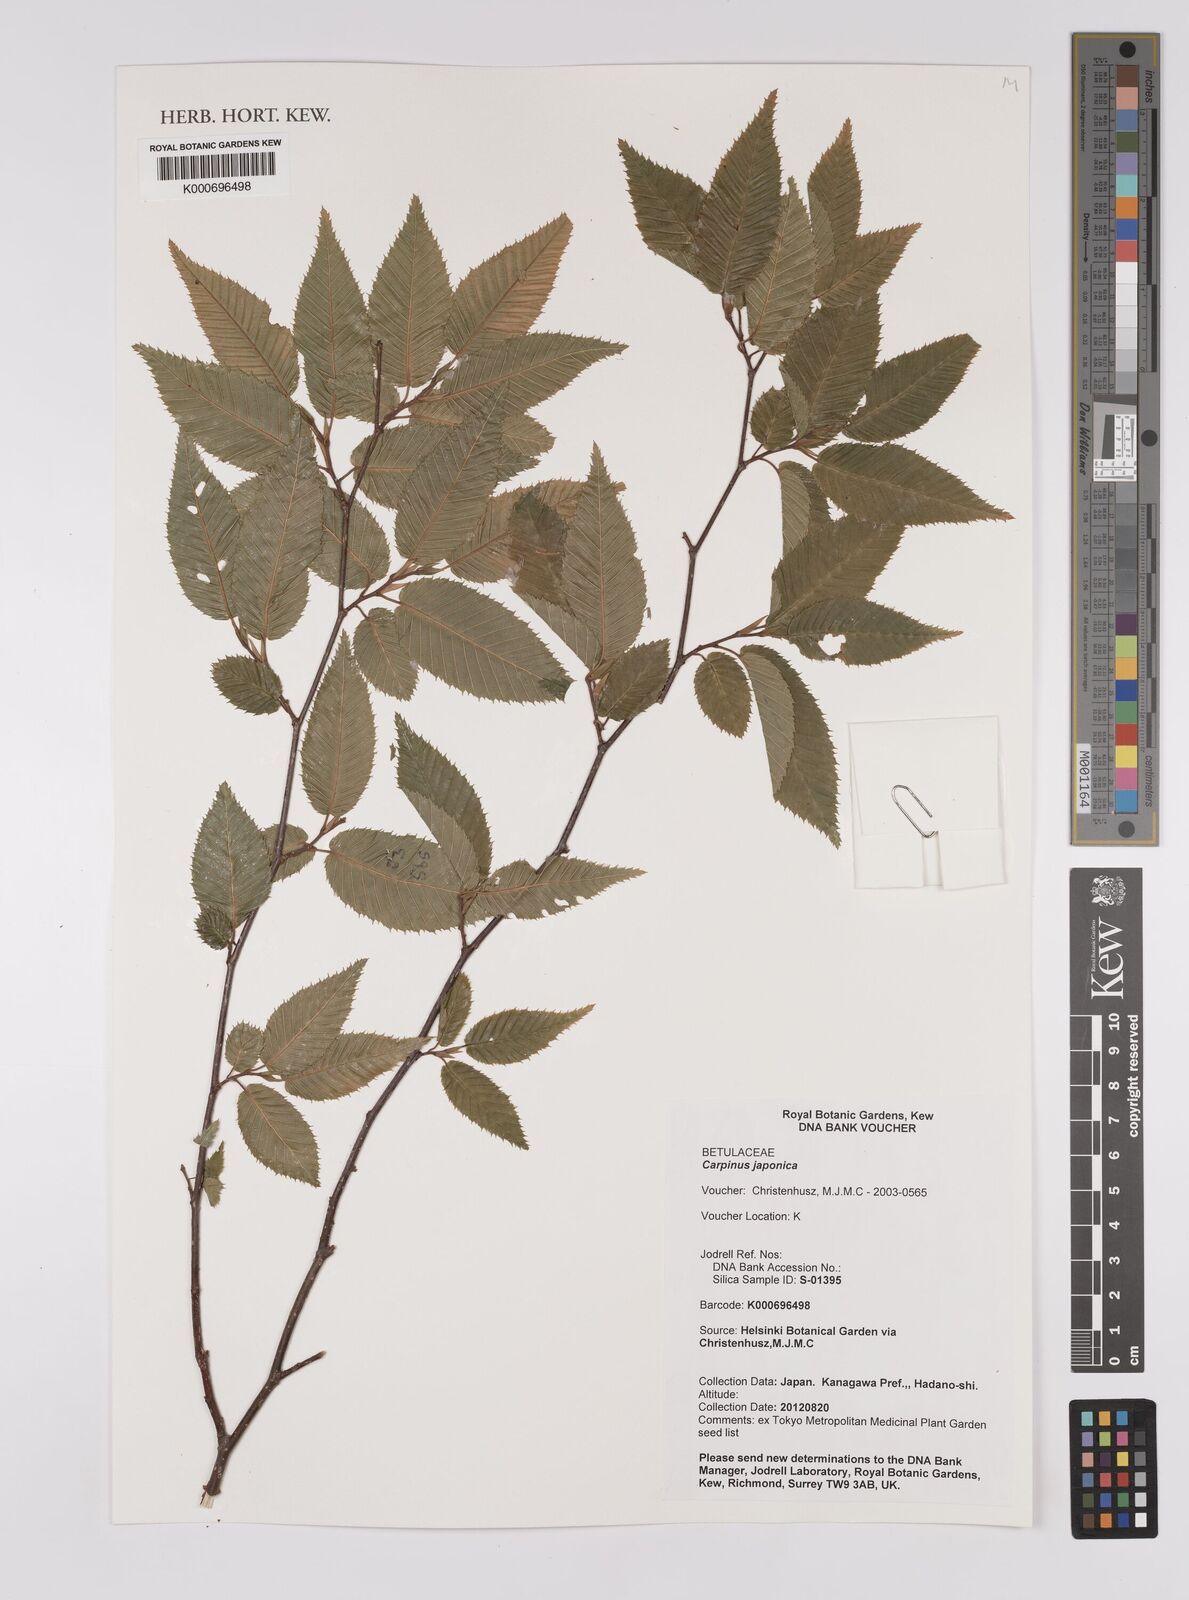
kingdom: Plantae
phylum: Tracheophyta
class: Magnoliopsida
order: Fagales
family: Betulaceae
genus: Carpinus
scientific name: Carpinus japonica
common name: Japanese hornbeam
